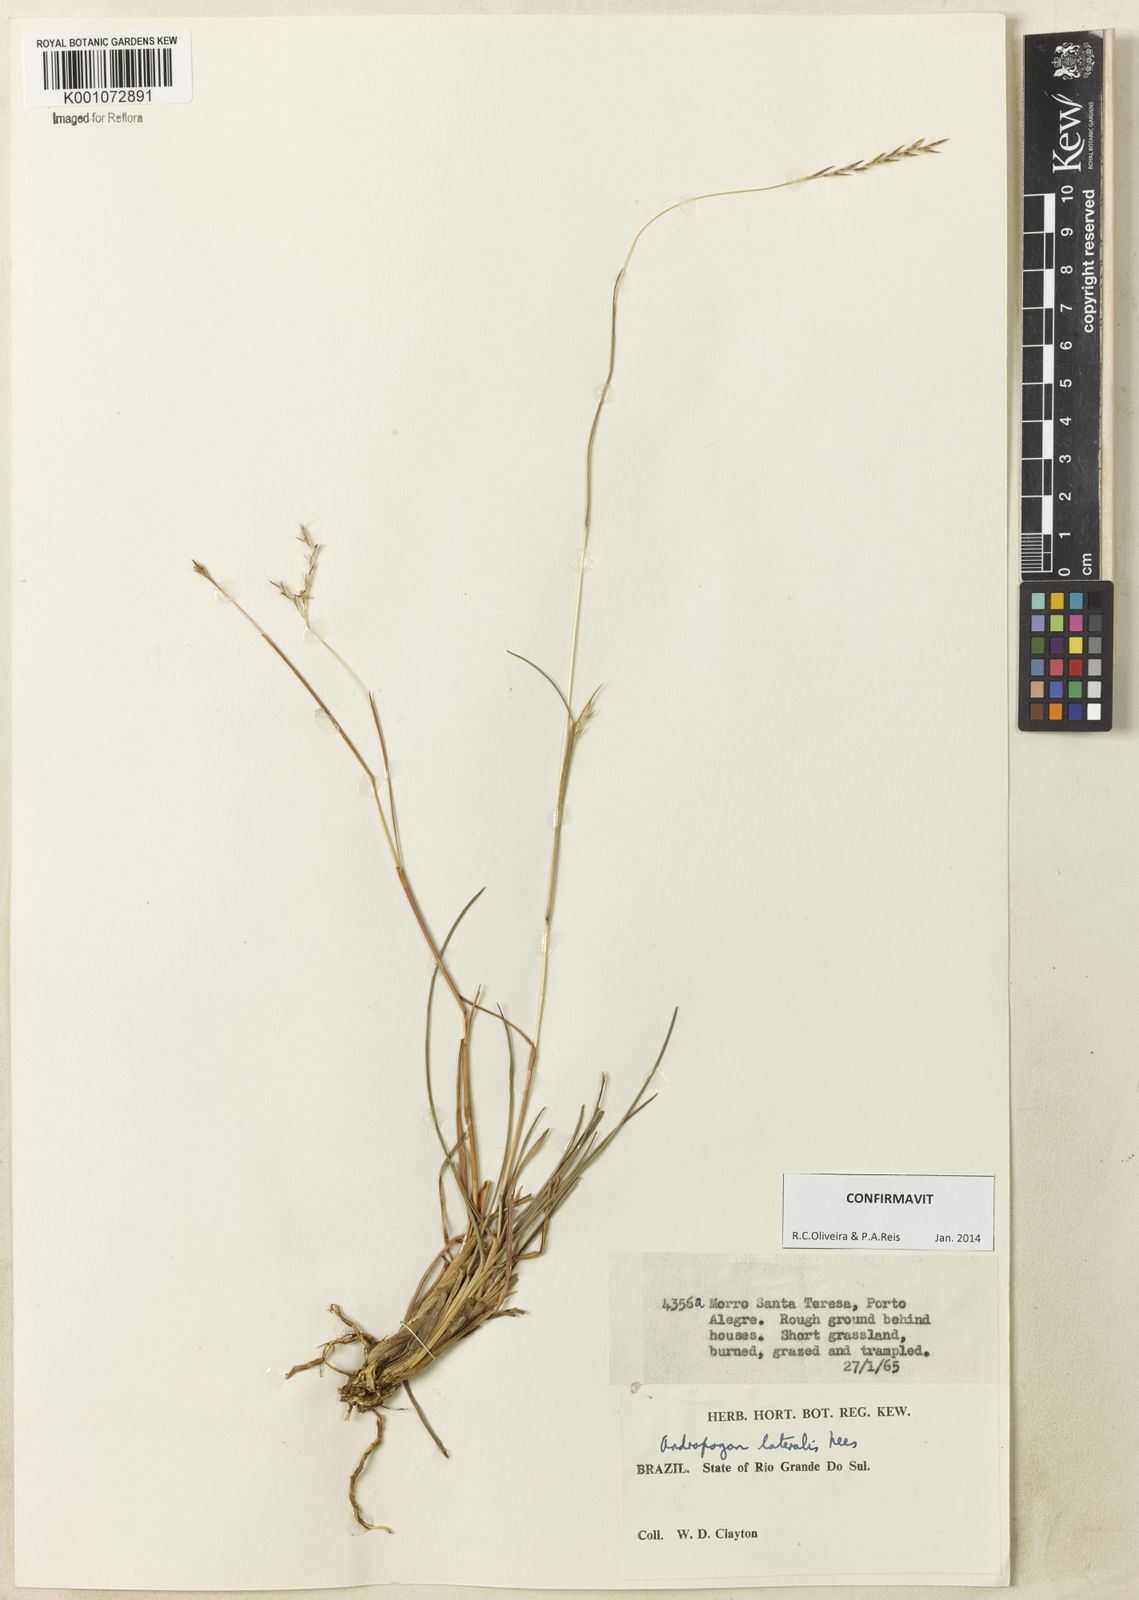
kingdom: Plantae
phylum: Tracheophyta
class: Liliopsida
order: Poales
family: Poaceae
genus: Andropogon
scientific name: Andropogon lateralis
